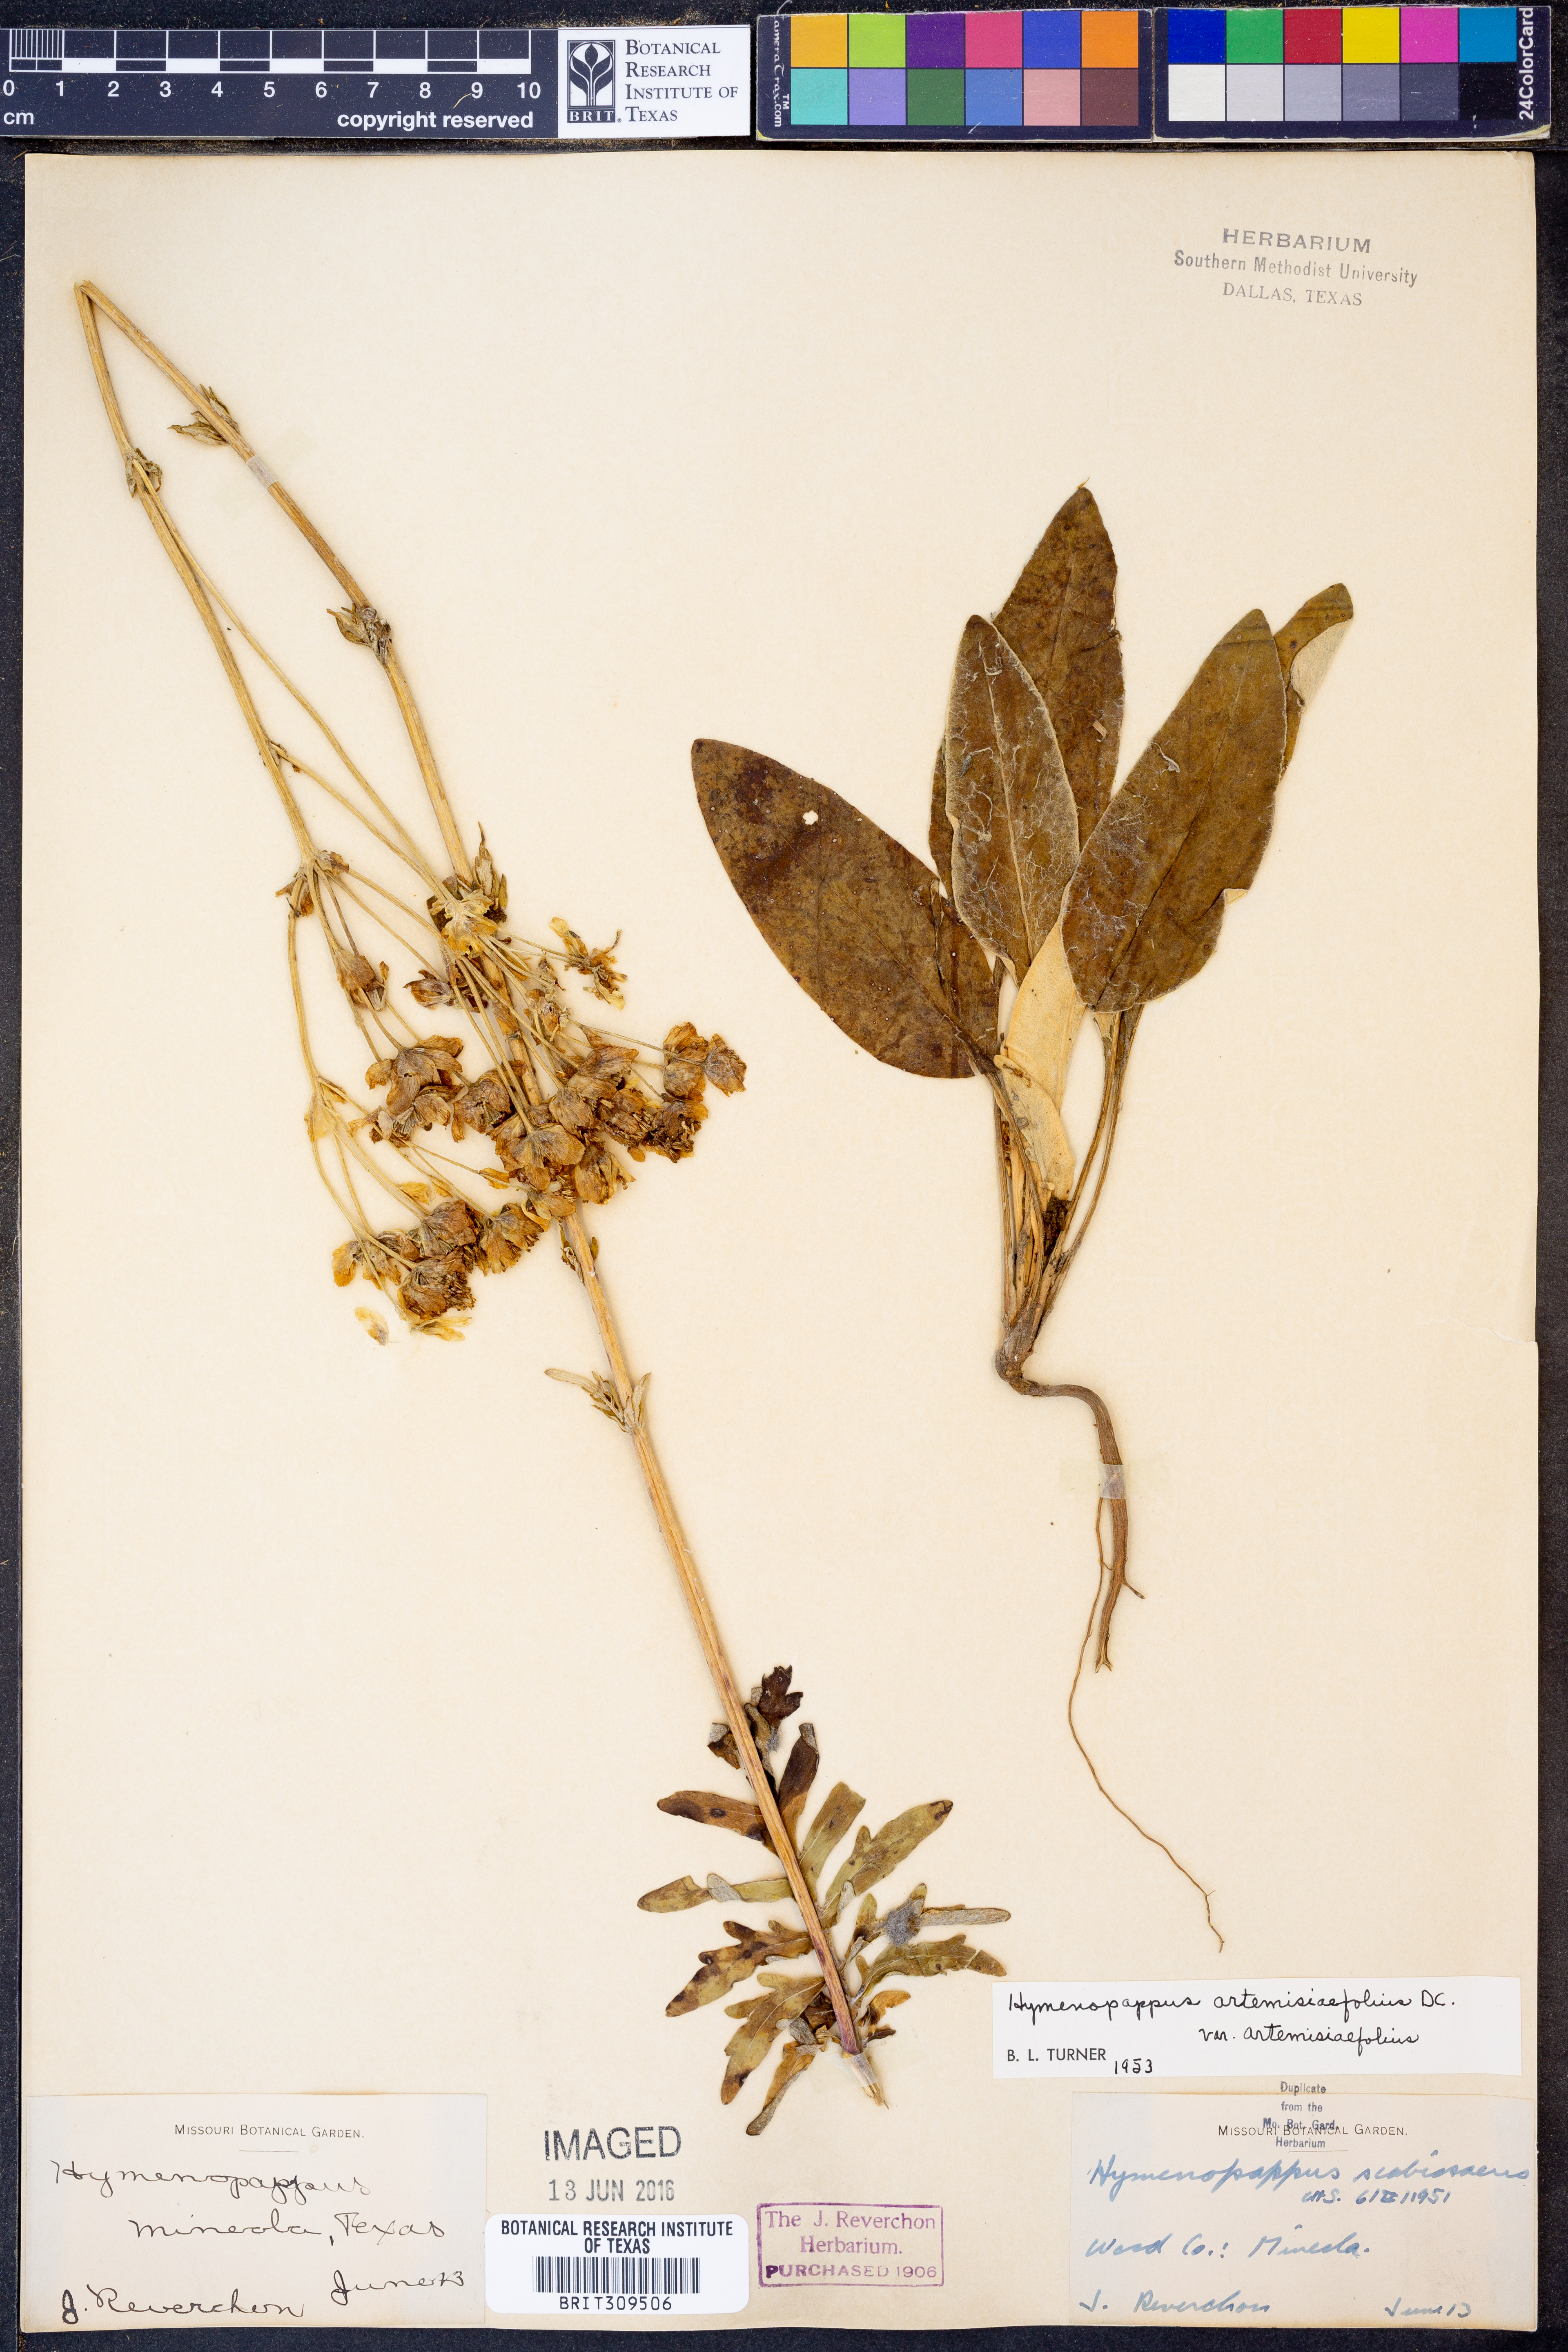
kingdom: Plantae
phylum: Tracheophyta
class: Magnoliopsida
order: Asterales
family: Asteraceae
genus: Hymenopappus
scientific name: Hymenopappus artemisiifolius
